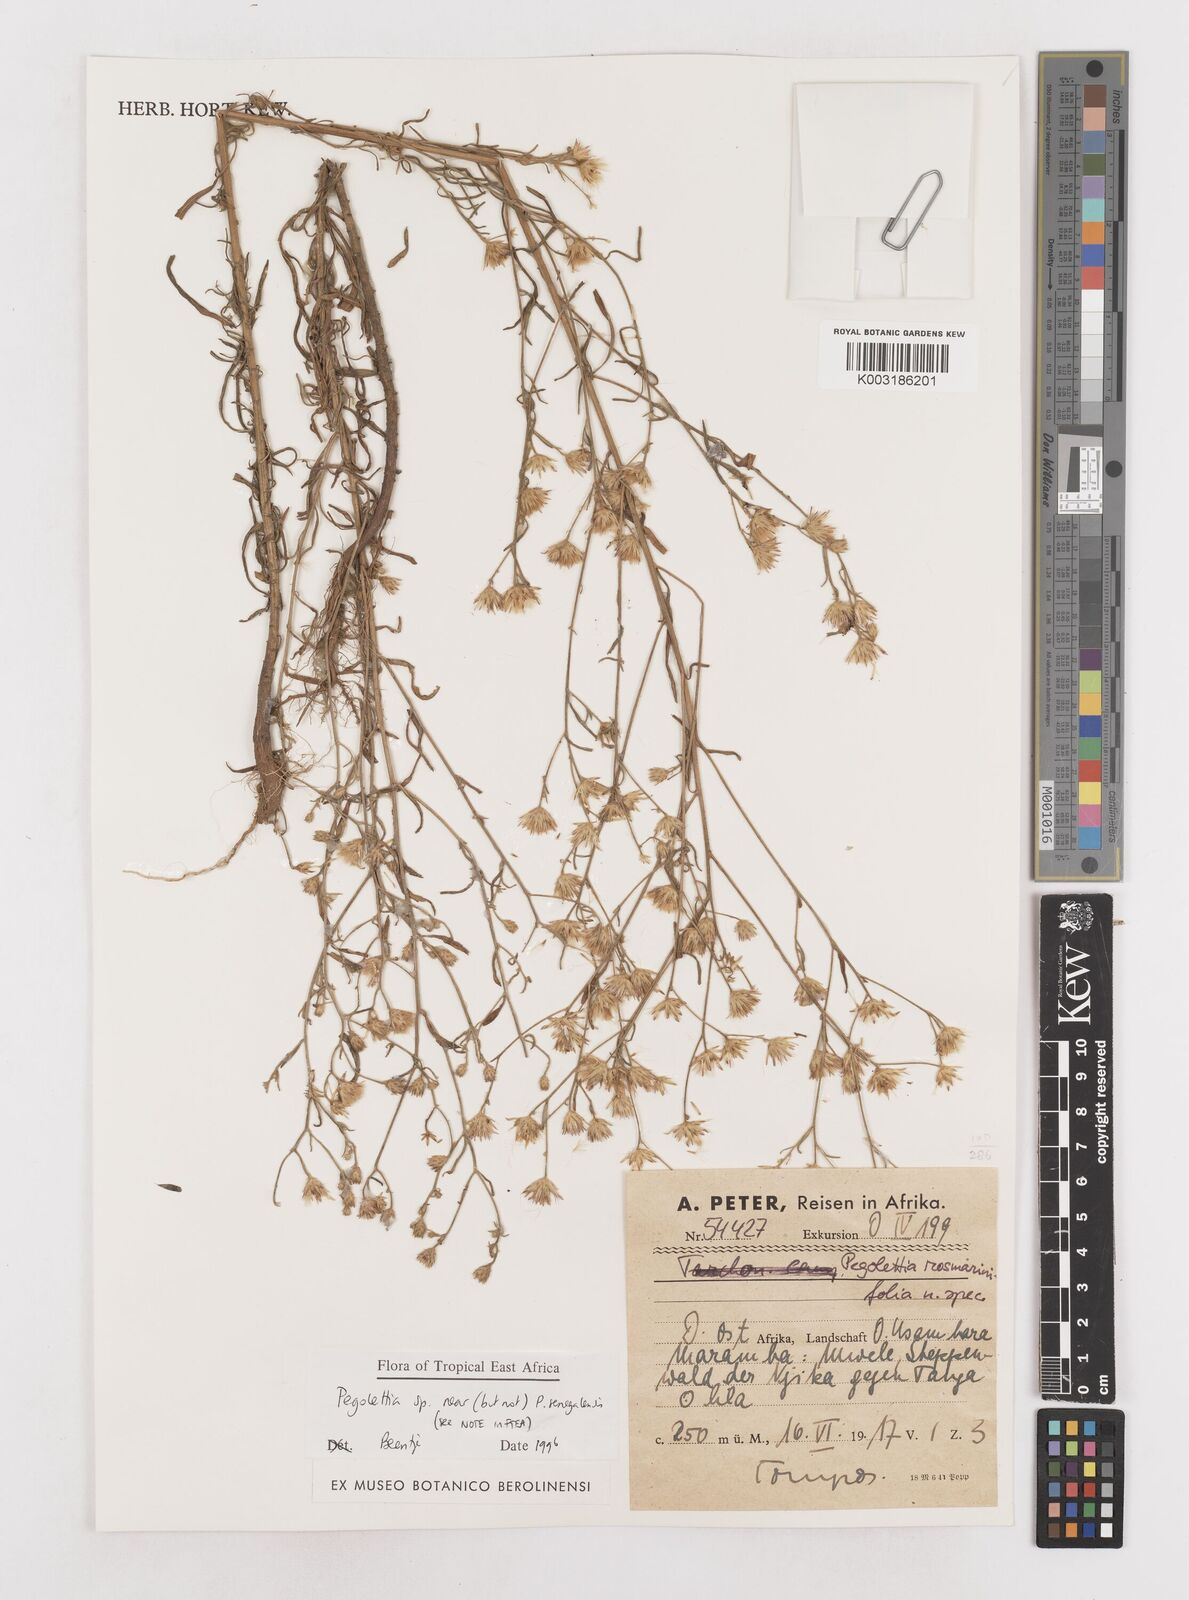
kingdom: Plantae
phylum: Tracheophyta
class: Magnoliopsida
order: Asterales
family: Asteraceae
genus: Pegolettia
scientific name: Pegolettia
